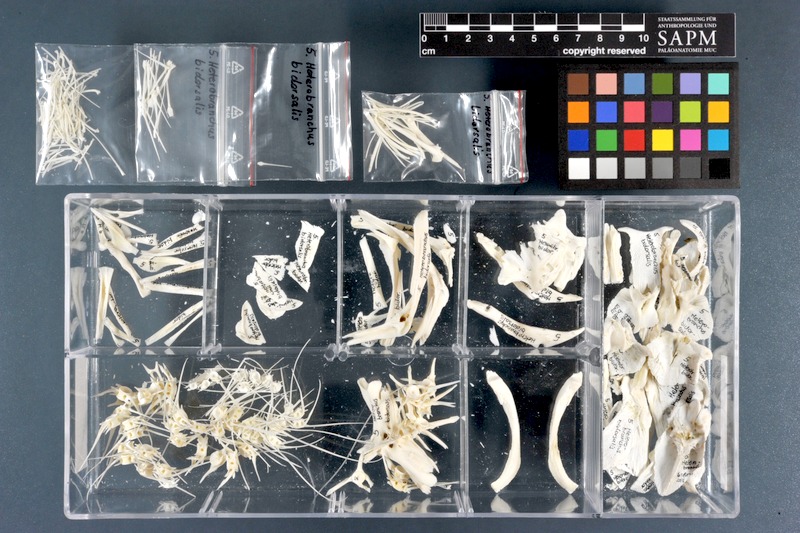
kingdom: Animalia
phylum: Chordata
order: Siluriformes
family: Clariidae
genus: Heterobranchus
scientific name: Heterobranchus bidorsalis
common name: Eel-like fattyfin catfish
